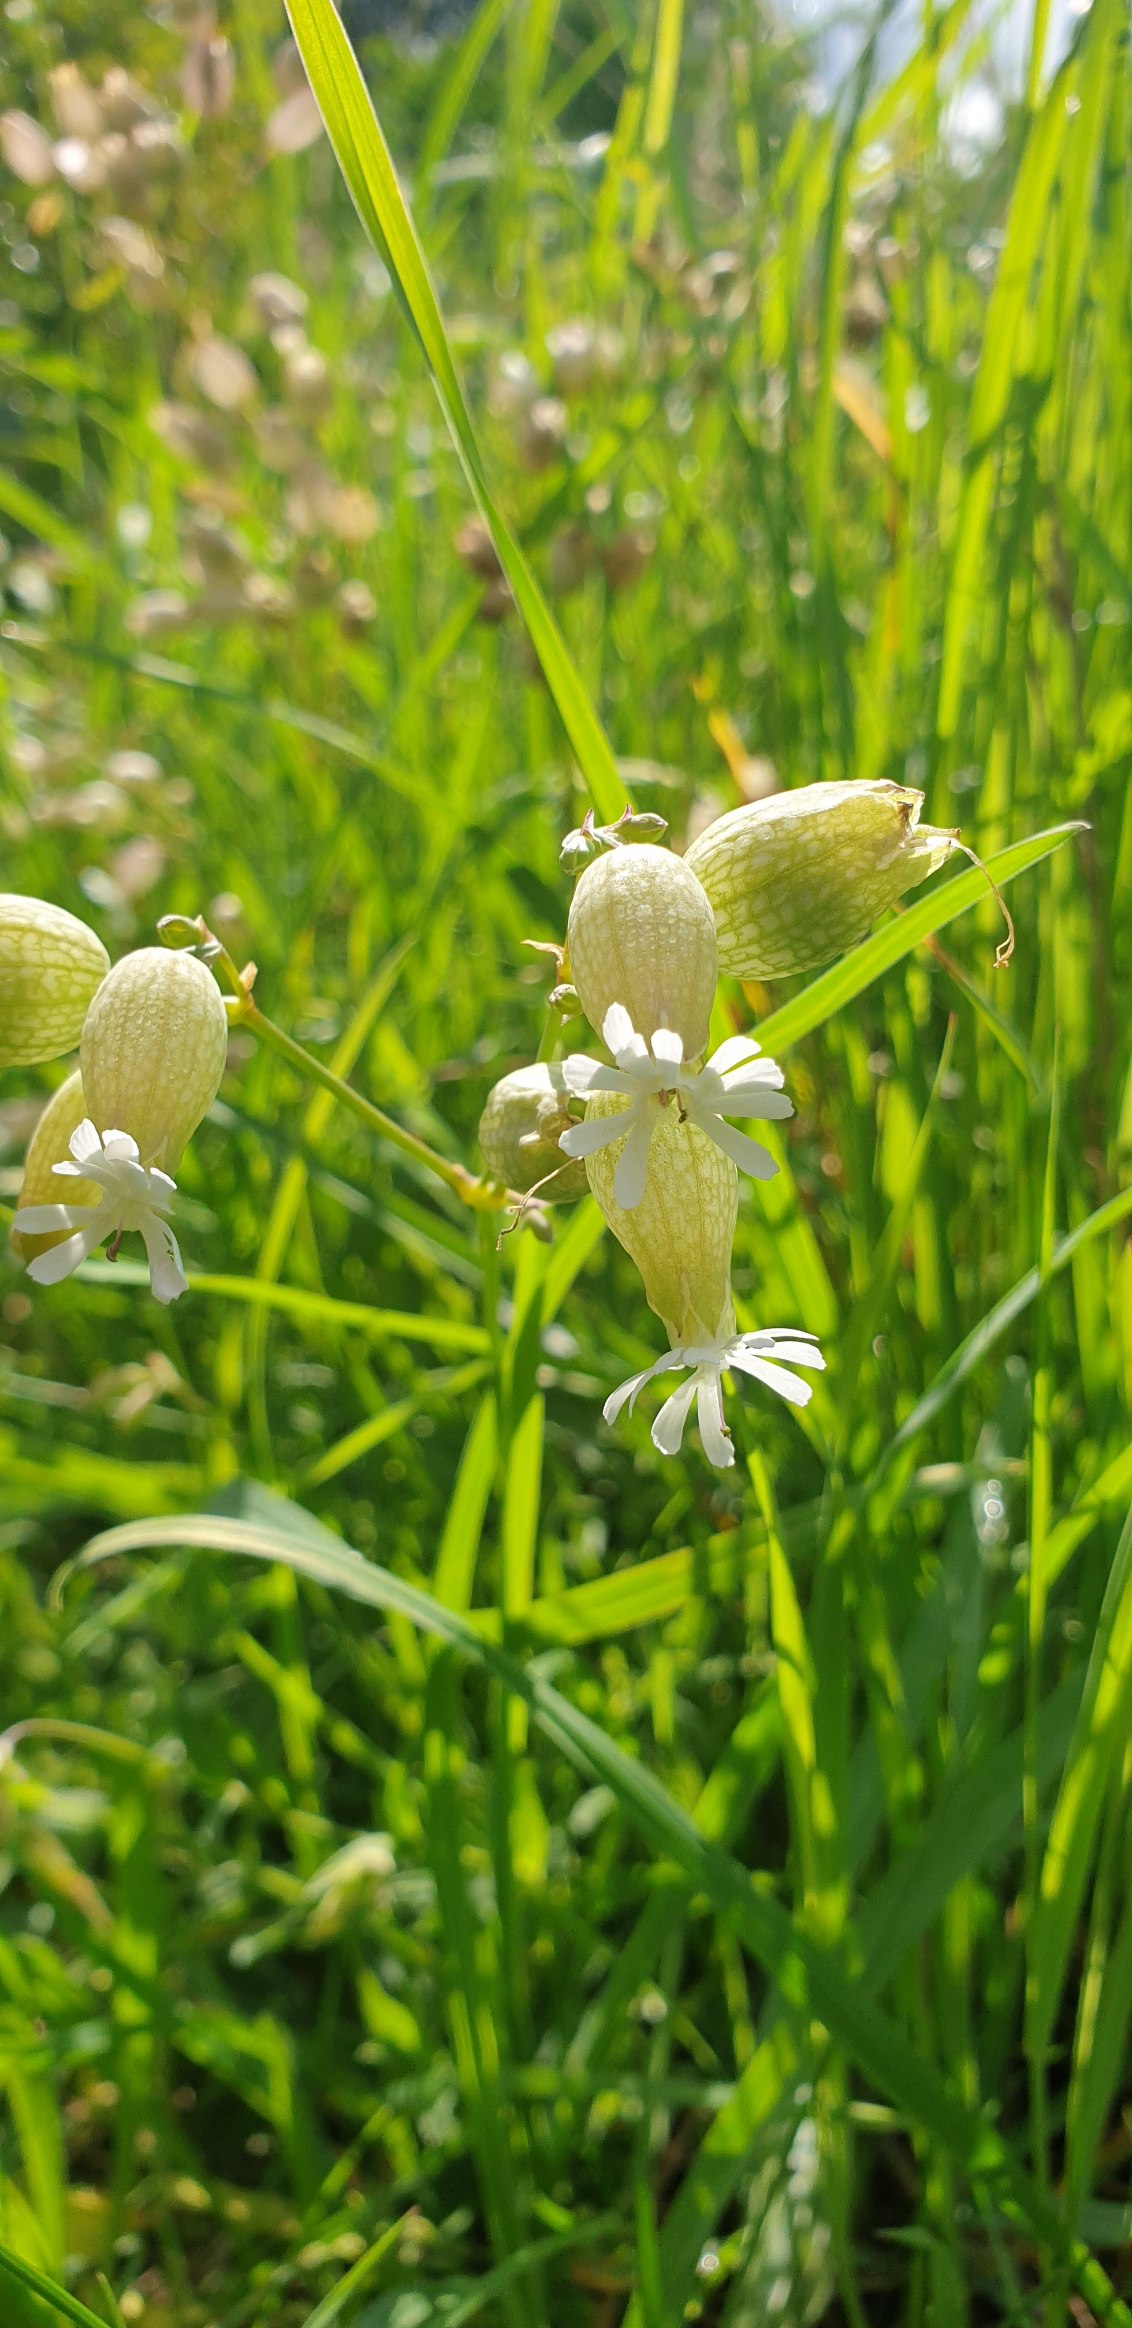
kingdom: Plantae
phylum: Tracheophyta
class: Magnoliopsida
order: Caryophyllales
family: Caryophyllaceae
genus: Silene
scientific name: Silene vulgaris
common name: Blæresmælde
